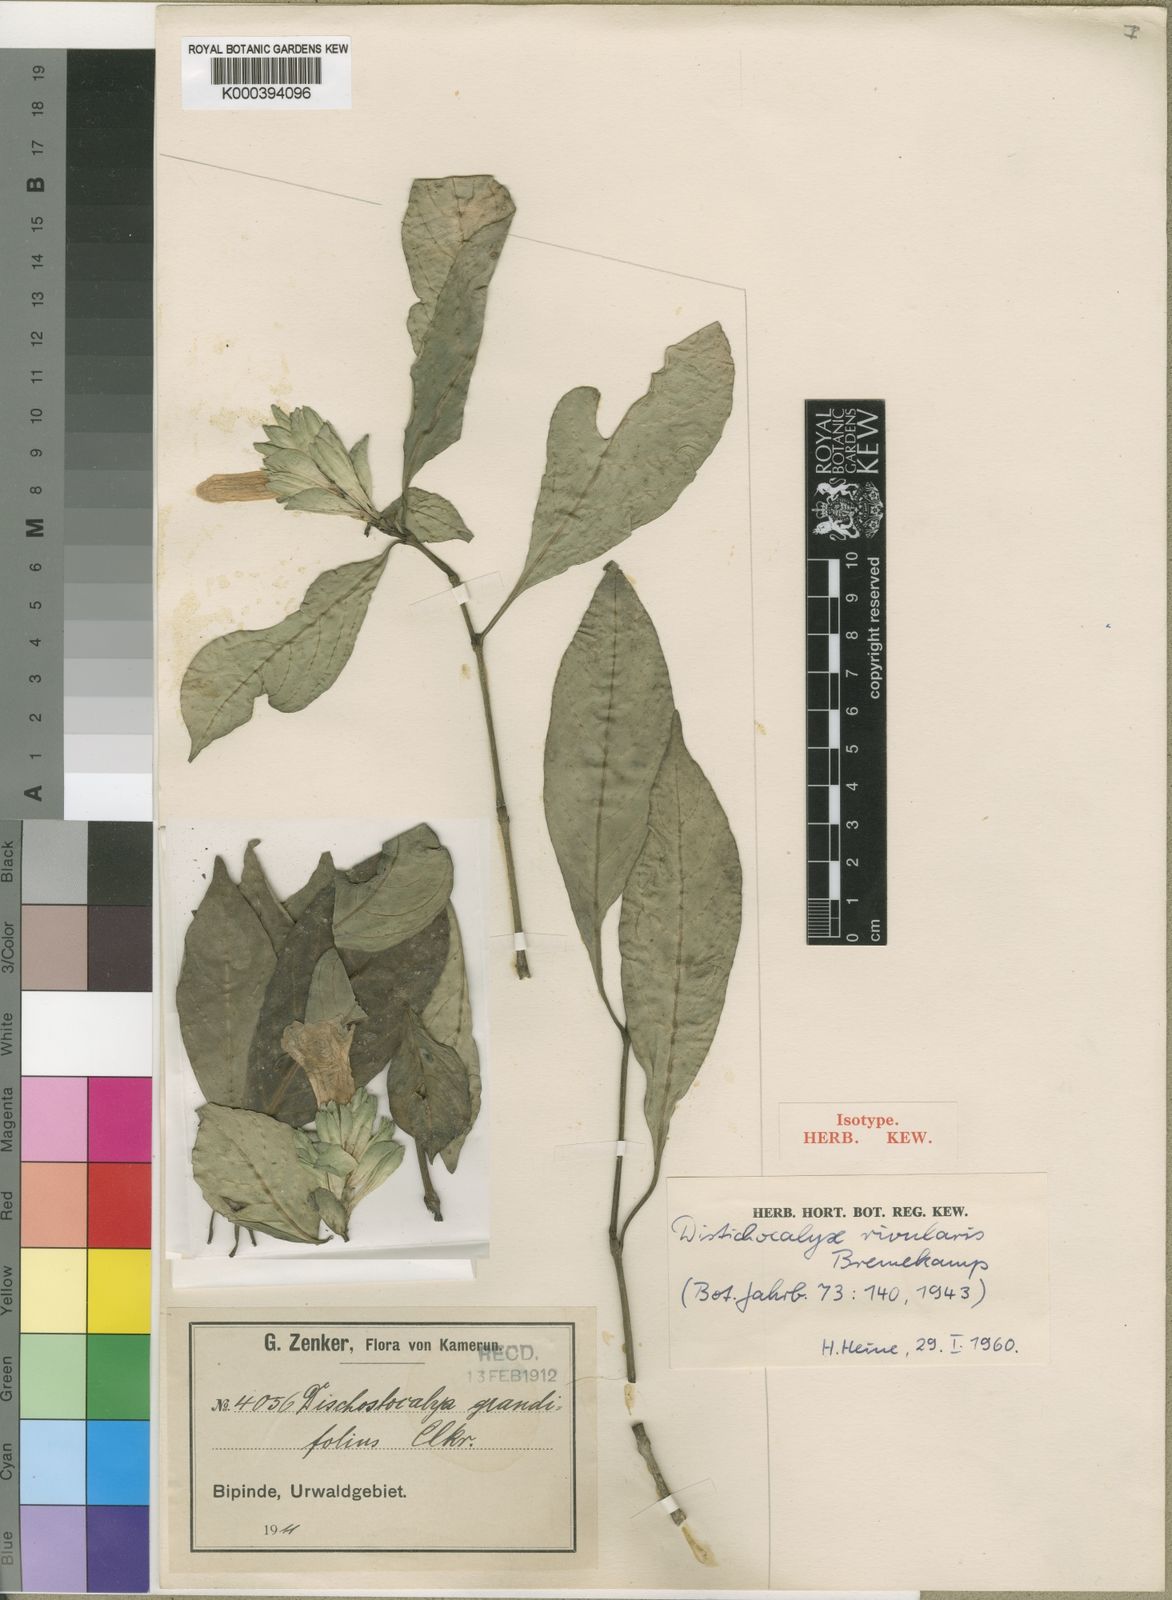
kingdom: Plantae
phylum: Tracheophyta
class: Magnoliopsida
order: Lamiales
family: Acanthaceae
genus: Dischistocalyx
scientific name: Dischistocalyx rivularis
